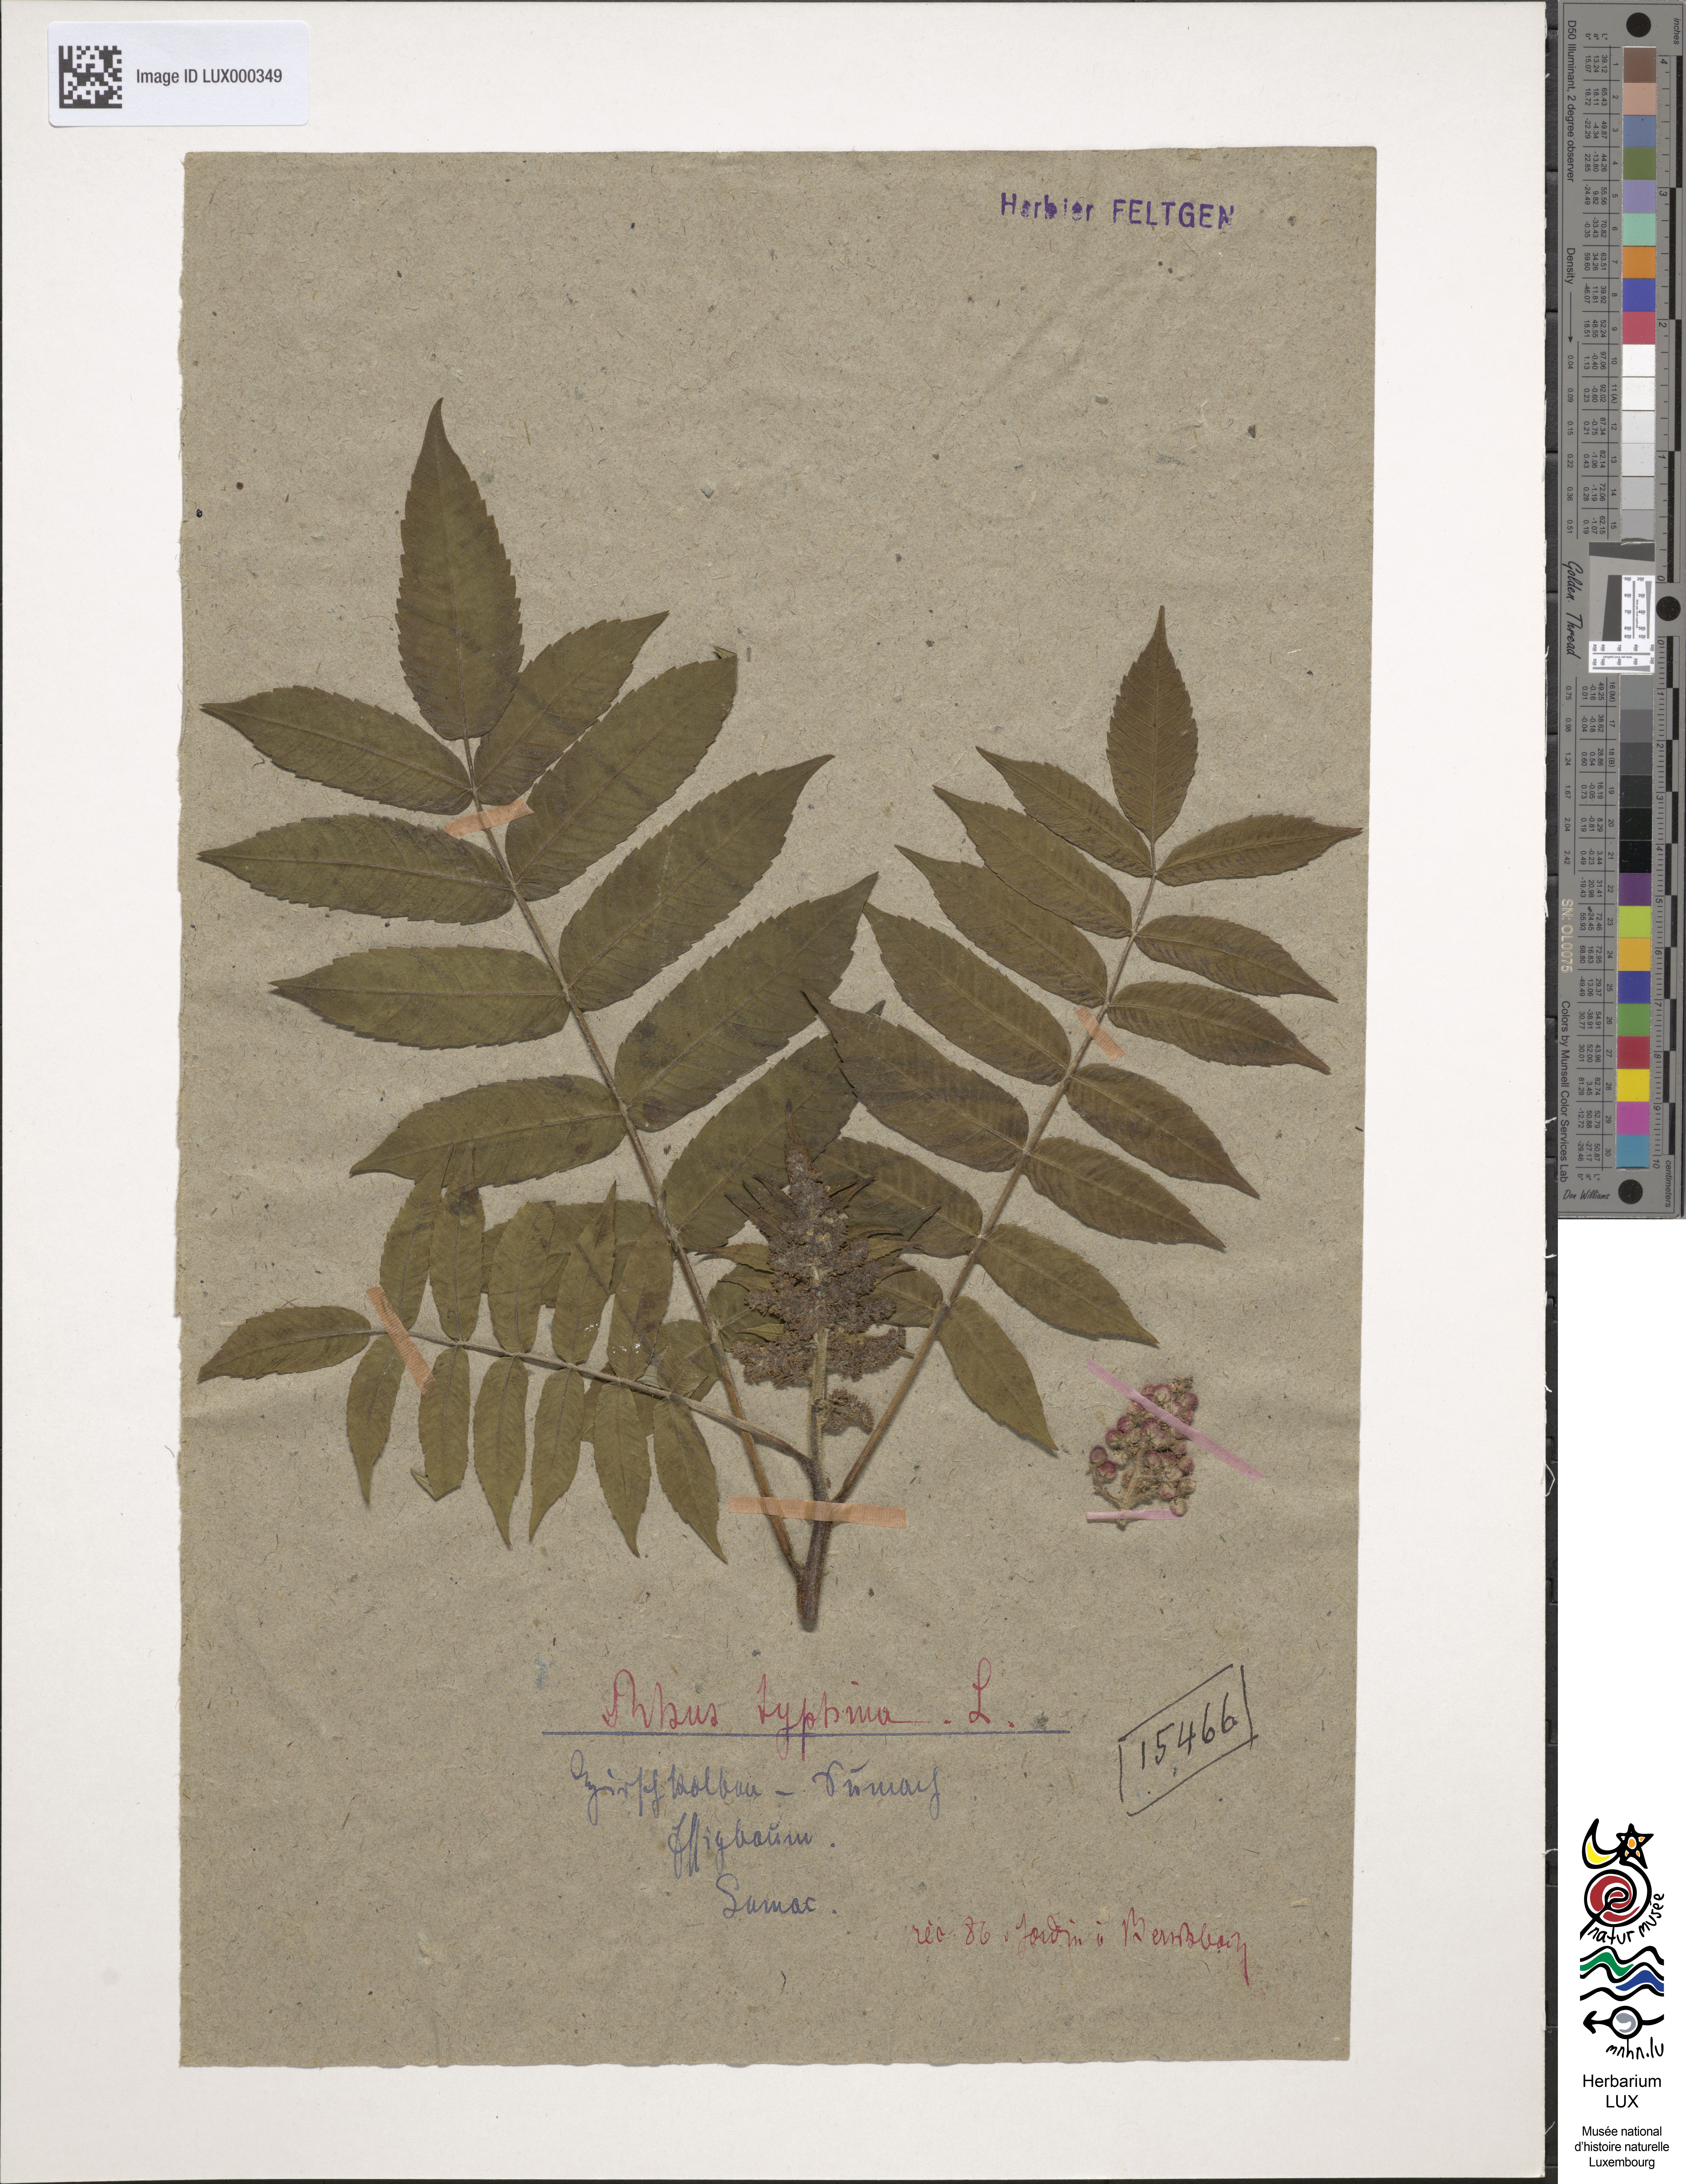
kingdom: Plantae
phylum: Tracheophyta
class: Magnoliopsida
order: Sapindales
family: Anacardiaceae
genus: Rhus
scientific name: Rhus typhina
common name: Staghorn sumac
